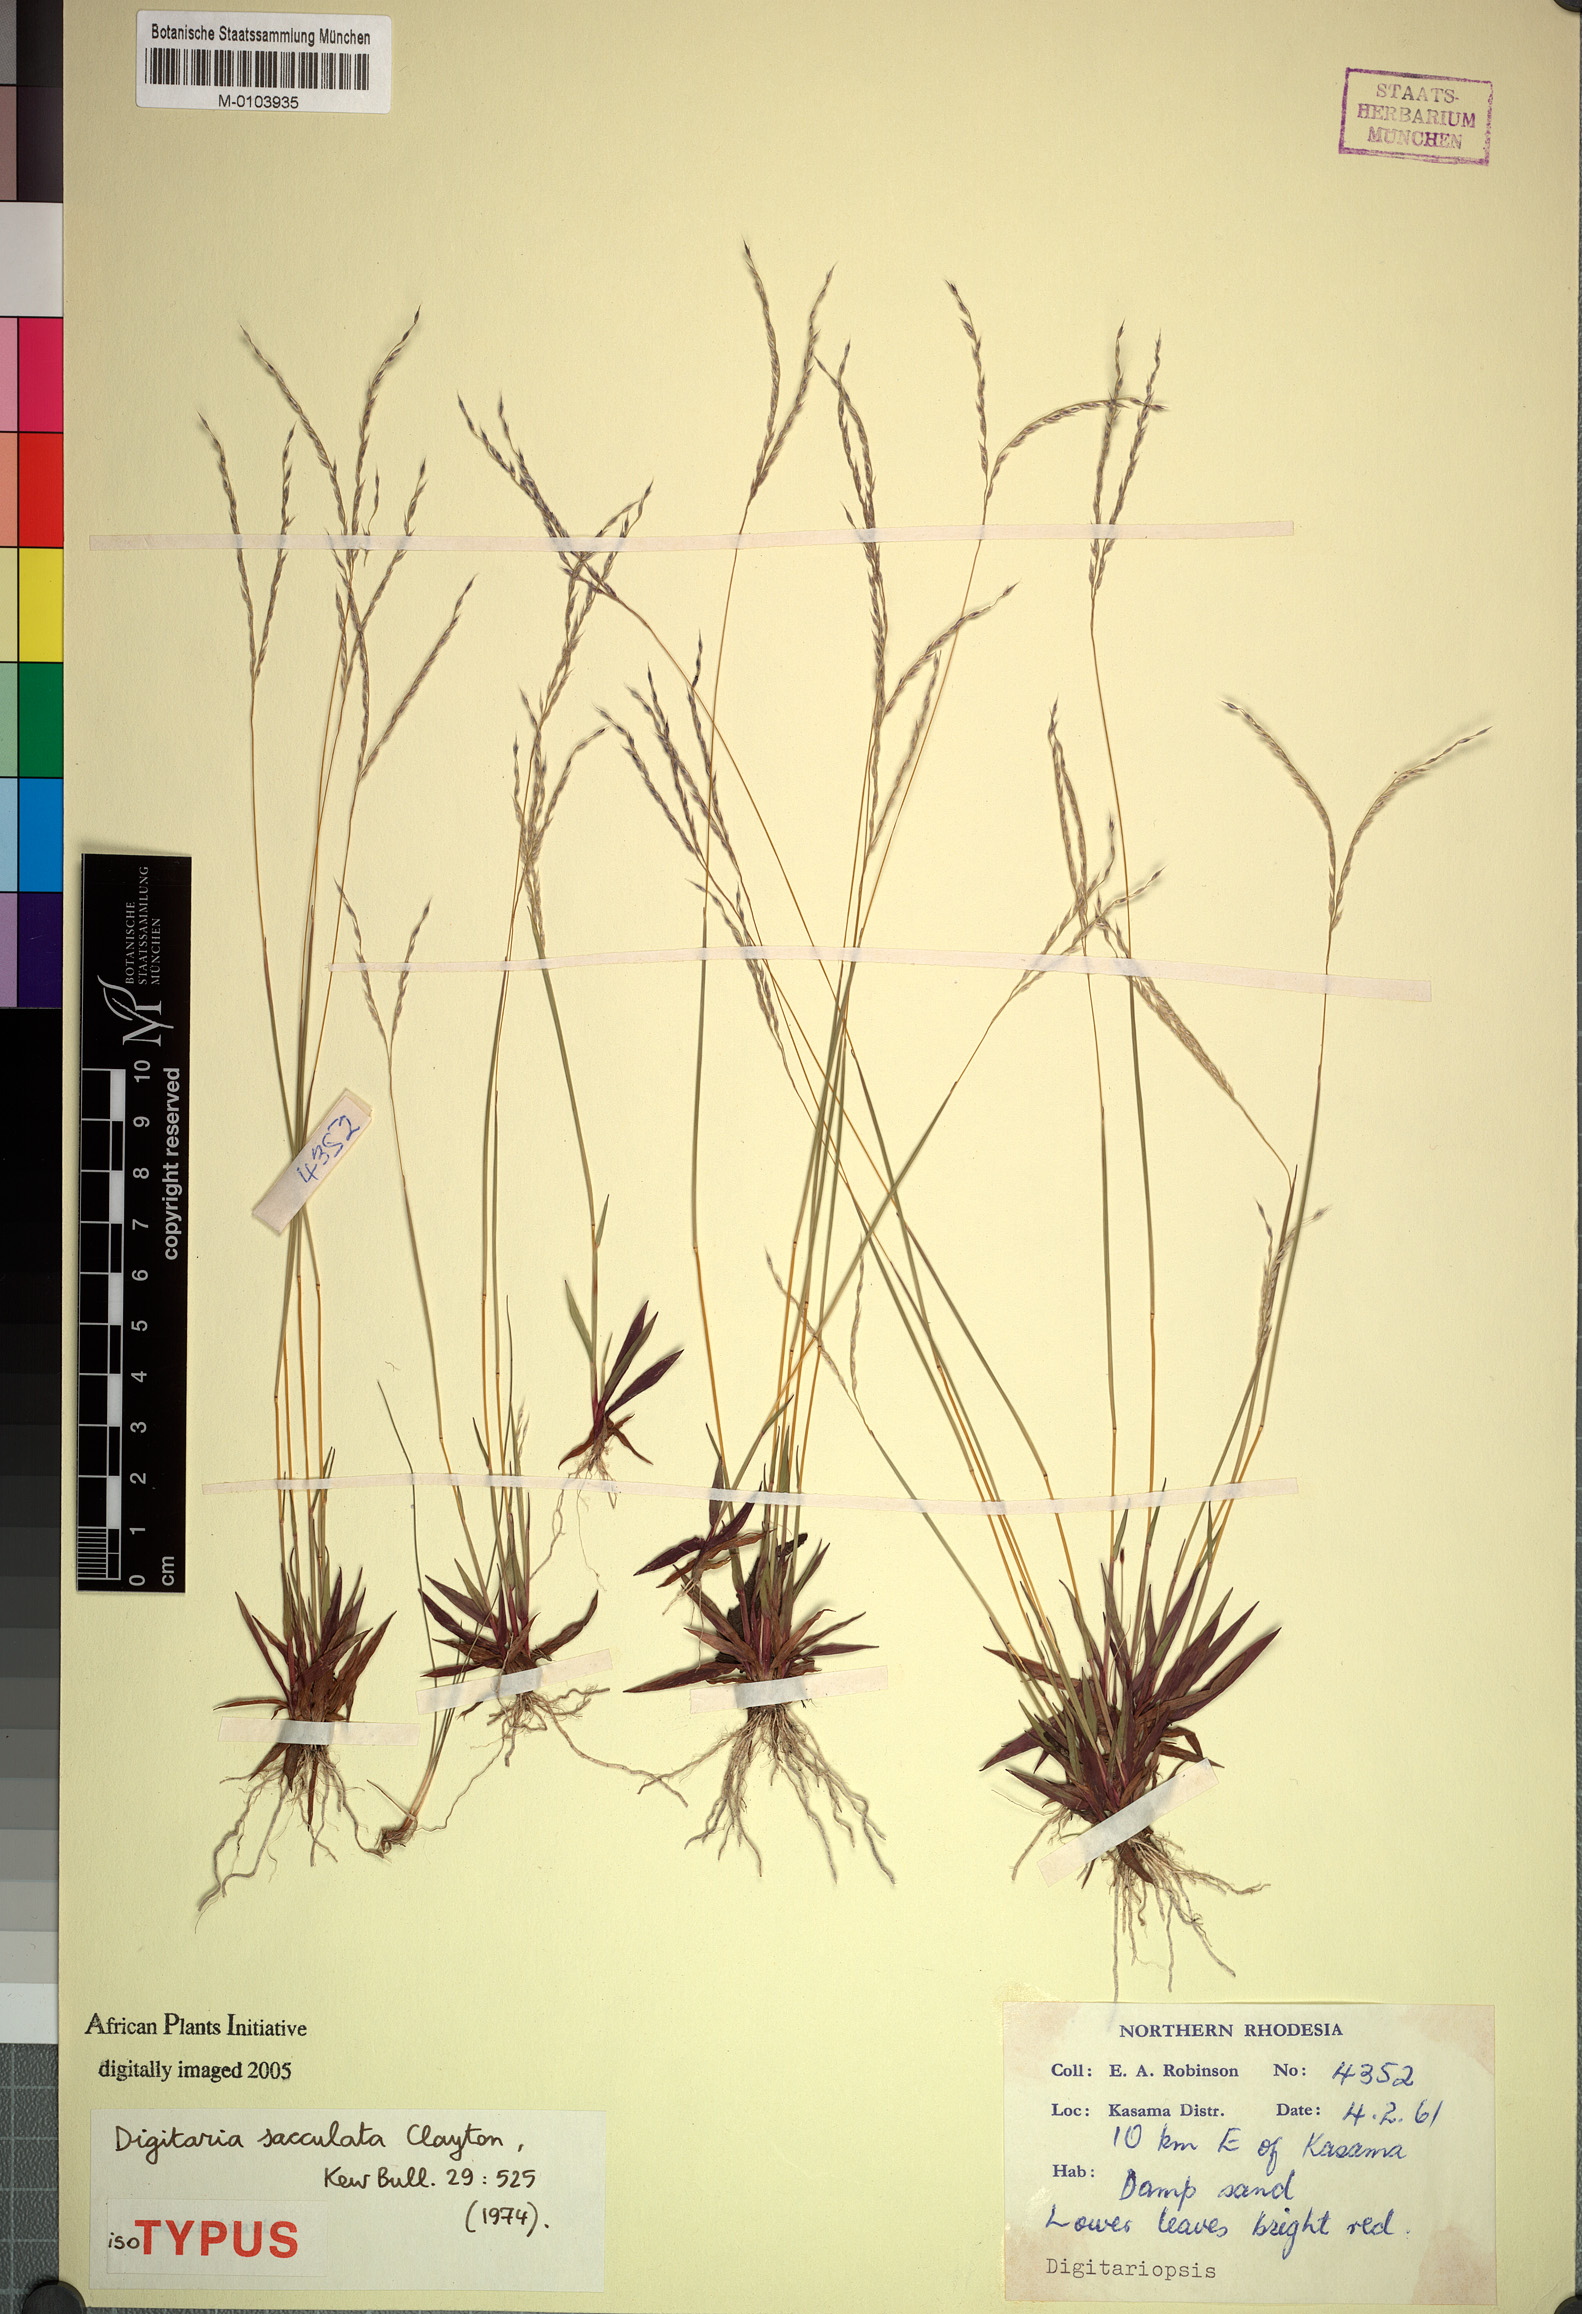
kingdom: Plantae
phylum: Tracheophyta
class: Liliopsida
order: Poales
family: Poaceae
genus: Digitaria
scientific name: Digitaria sacculata
